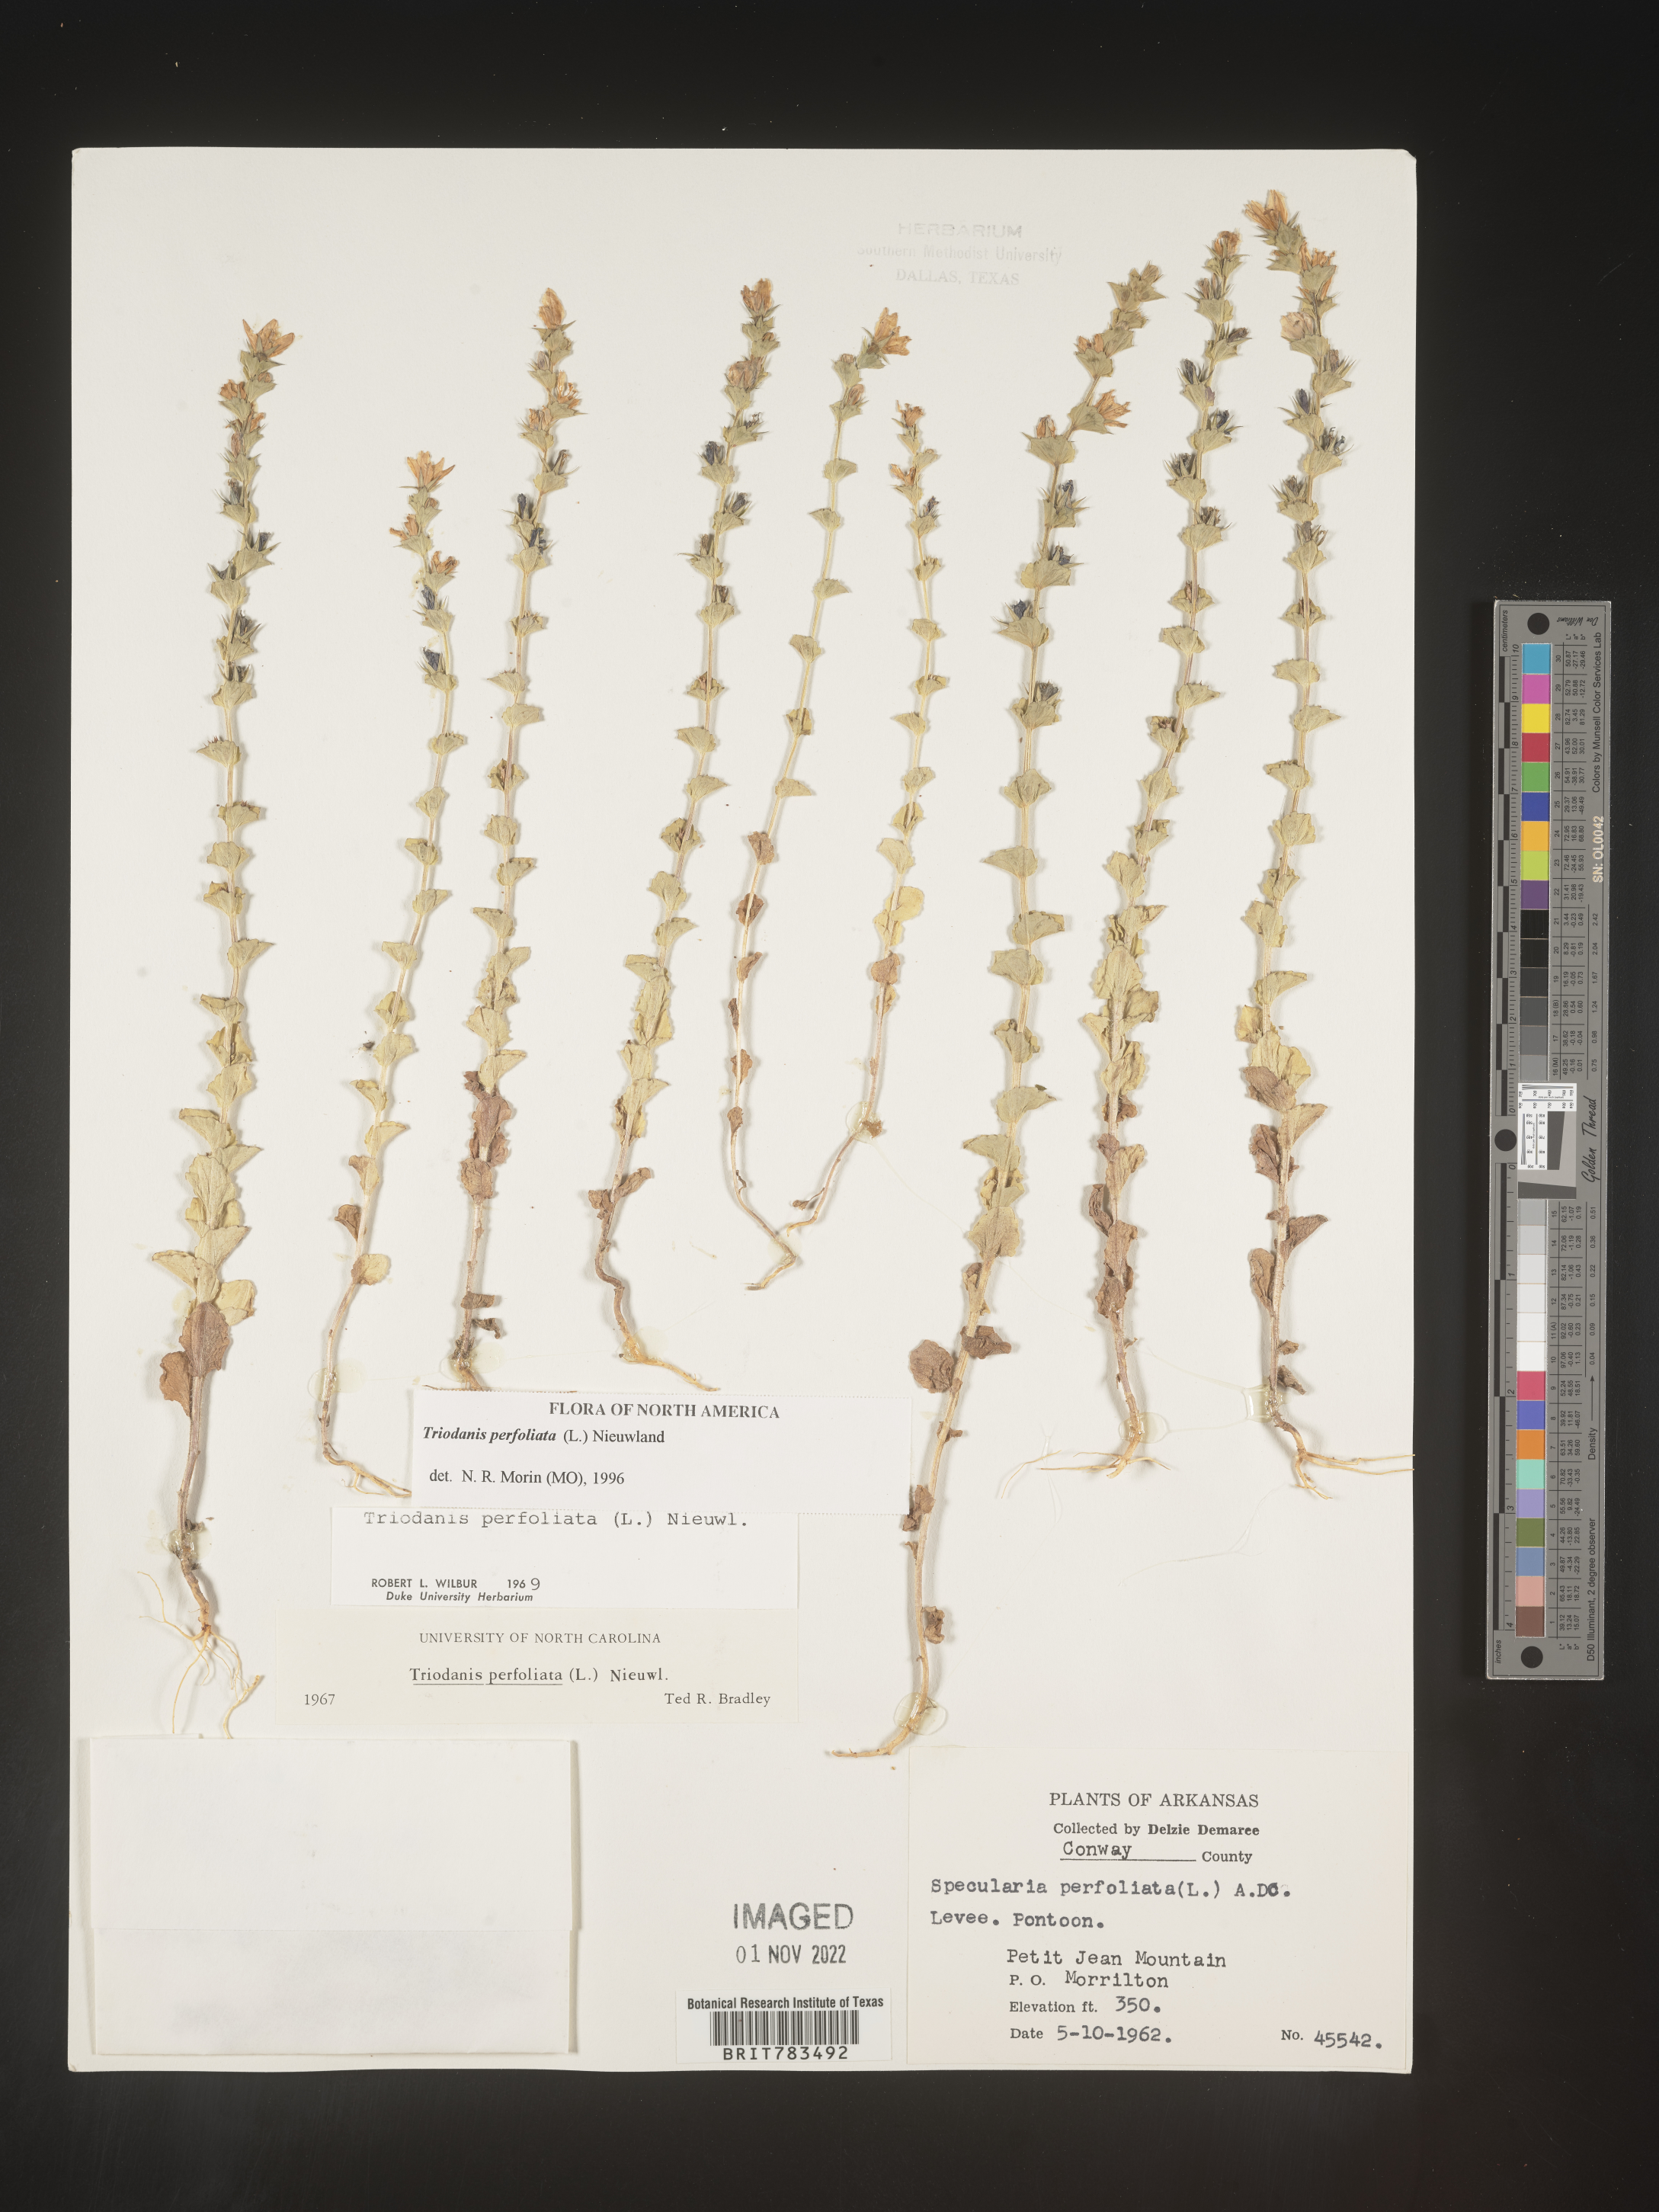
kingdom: Plantae
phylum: Tracheophyta
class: Magnoliopsida
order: Asterales
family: Campanulaceae
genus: Triodanis
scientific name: Triodanis perfoliata
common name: Clasping venus' looking-glass
